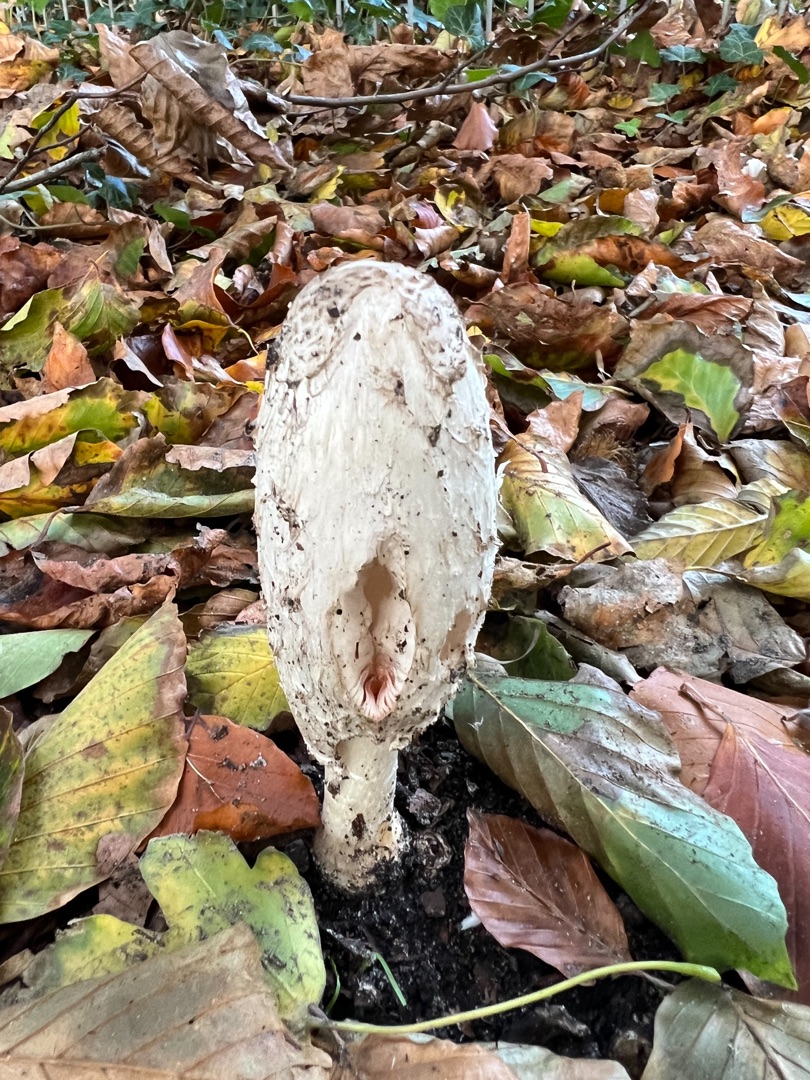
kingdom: Fungi
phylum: Basidiomycota
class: Agaricomycetes
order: Agaricales
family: Agaricaceae
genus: Coprinus
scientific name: Coprinus comatus
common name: Stor parykhat
